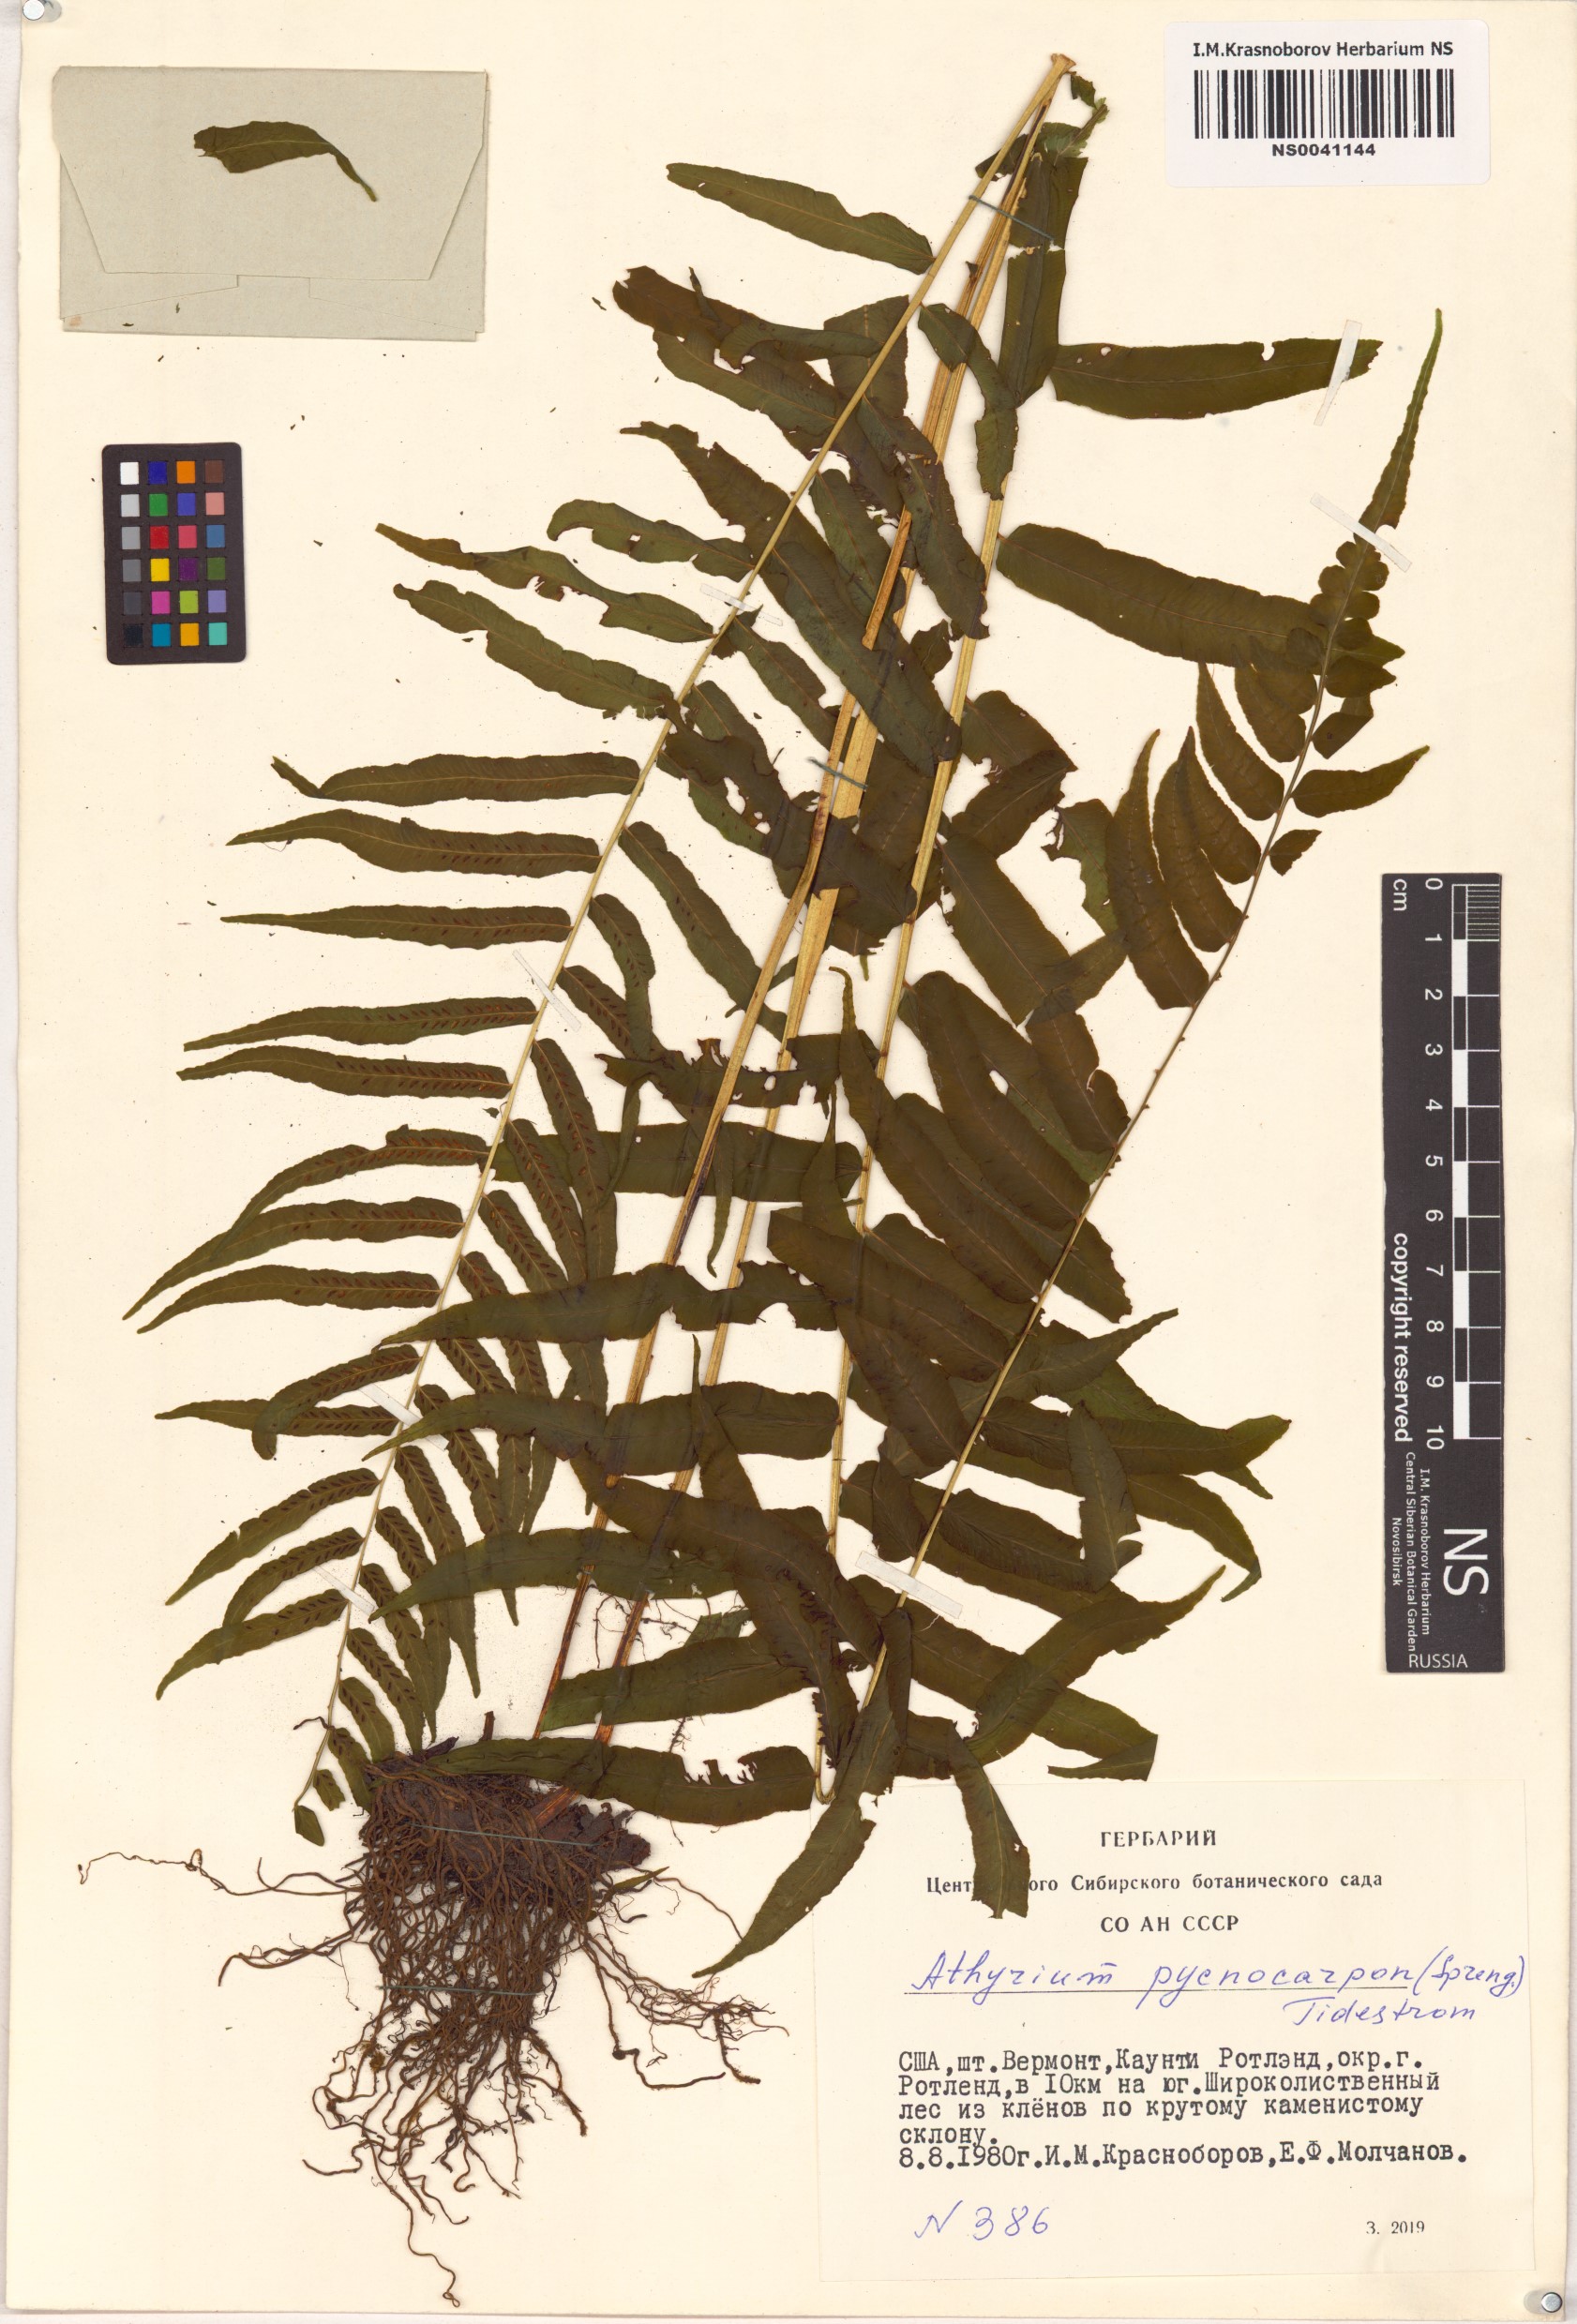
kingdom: Plantae
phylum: Tracheophyta
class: Polypodiopsida
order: Polypodiales
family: Diplaziopsidaceae
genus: Homalosorus
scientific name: Homalosorus pycnocarpos
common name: Glade fern
